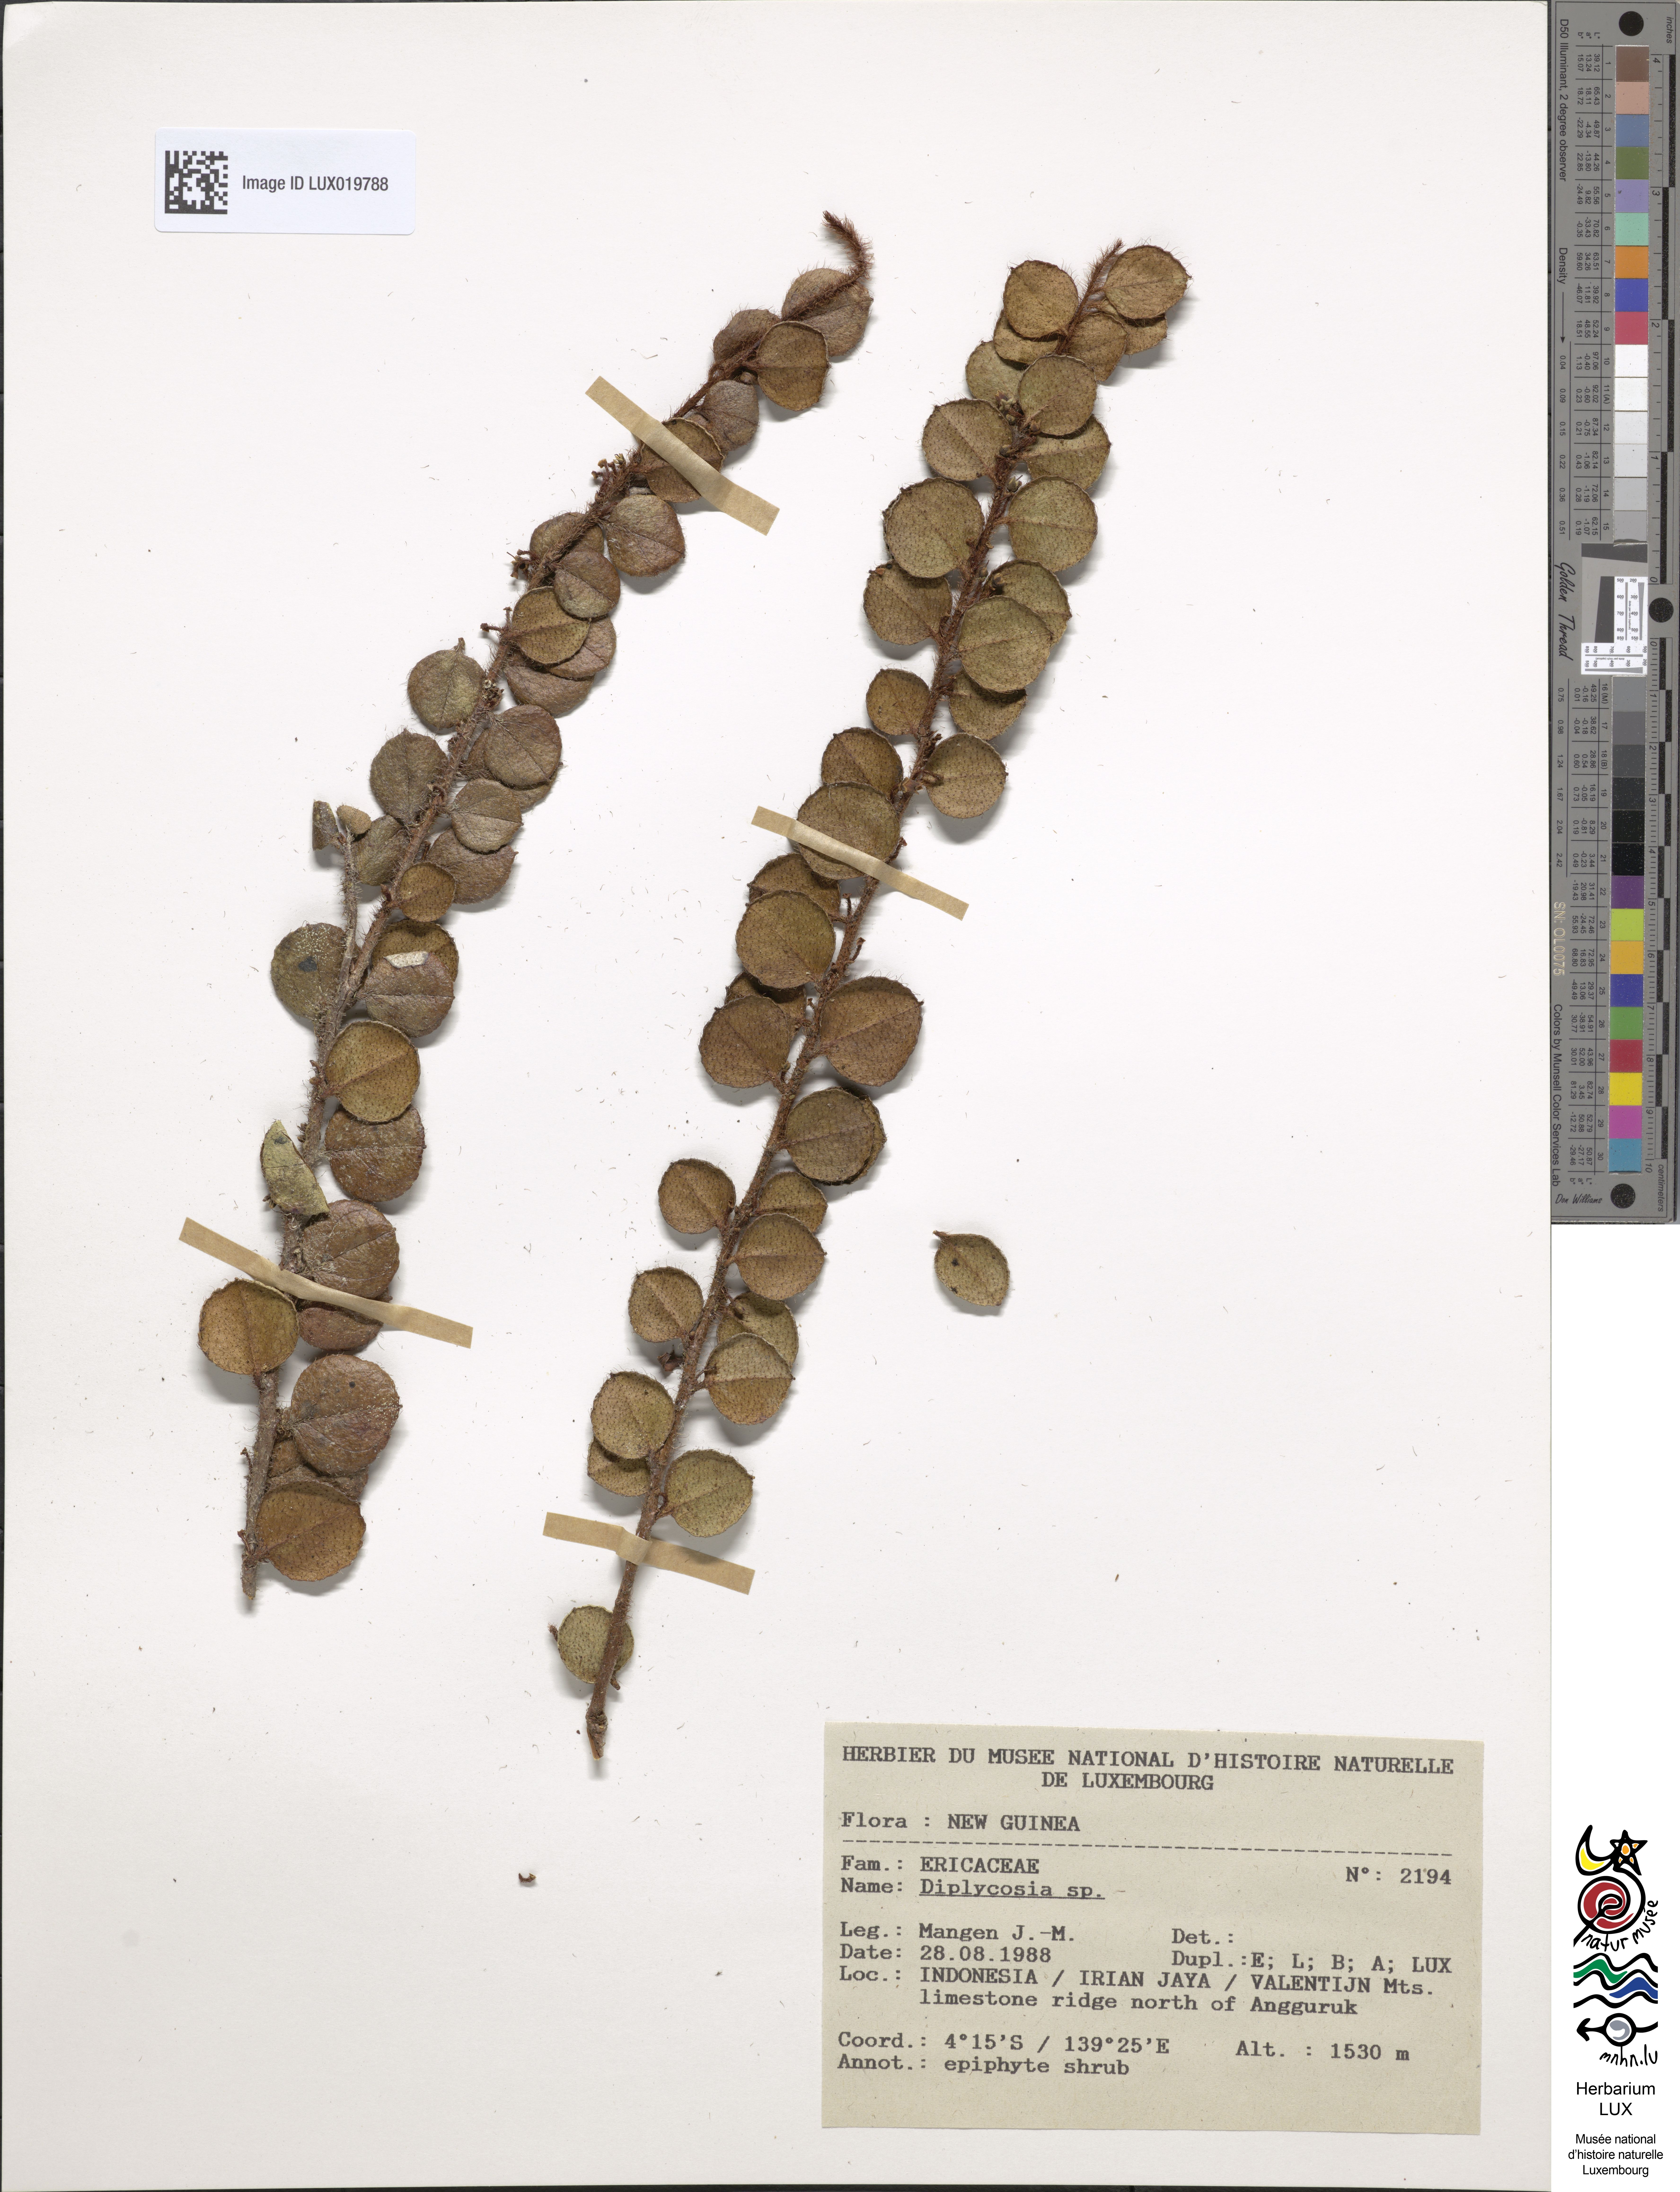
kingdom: Plantae
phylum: Tracheophyta
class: Magnoliopsida
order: Ericales
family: Ericaceae
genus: Gaultheria
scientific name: Gaultheria
